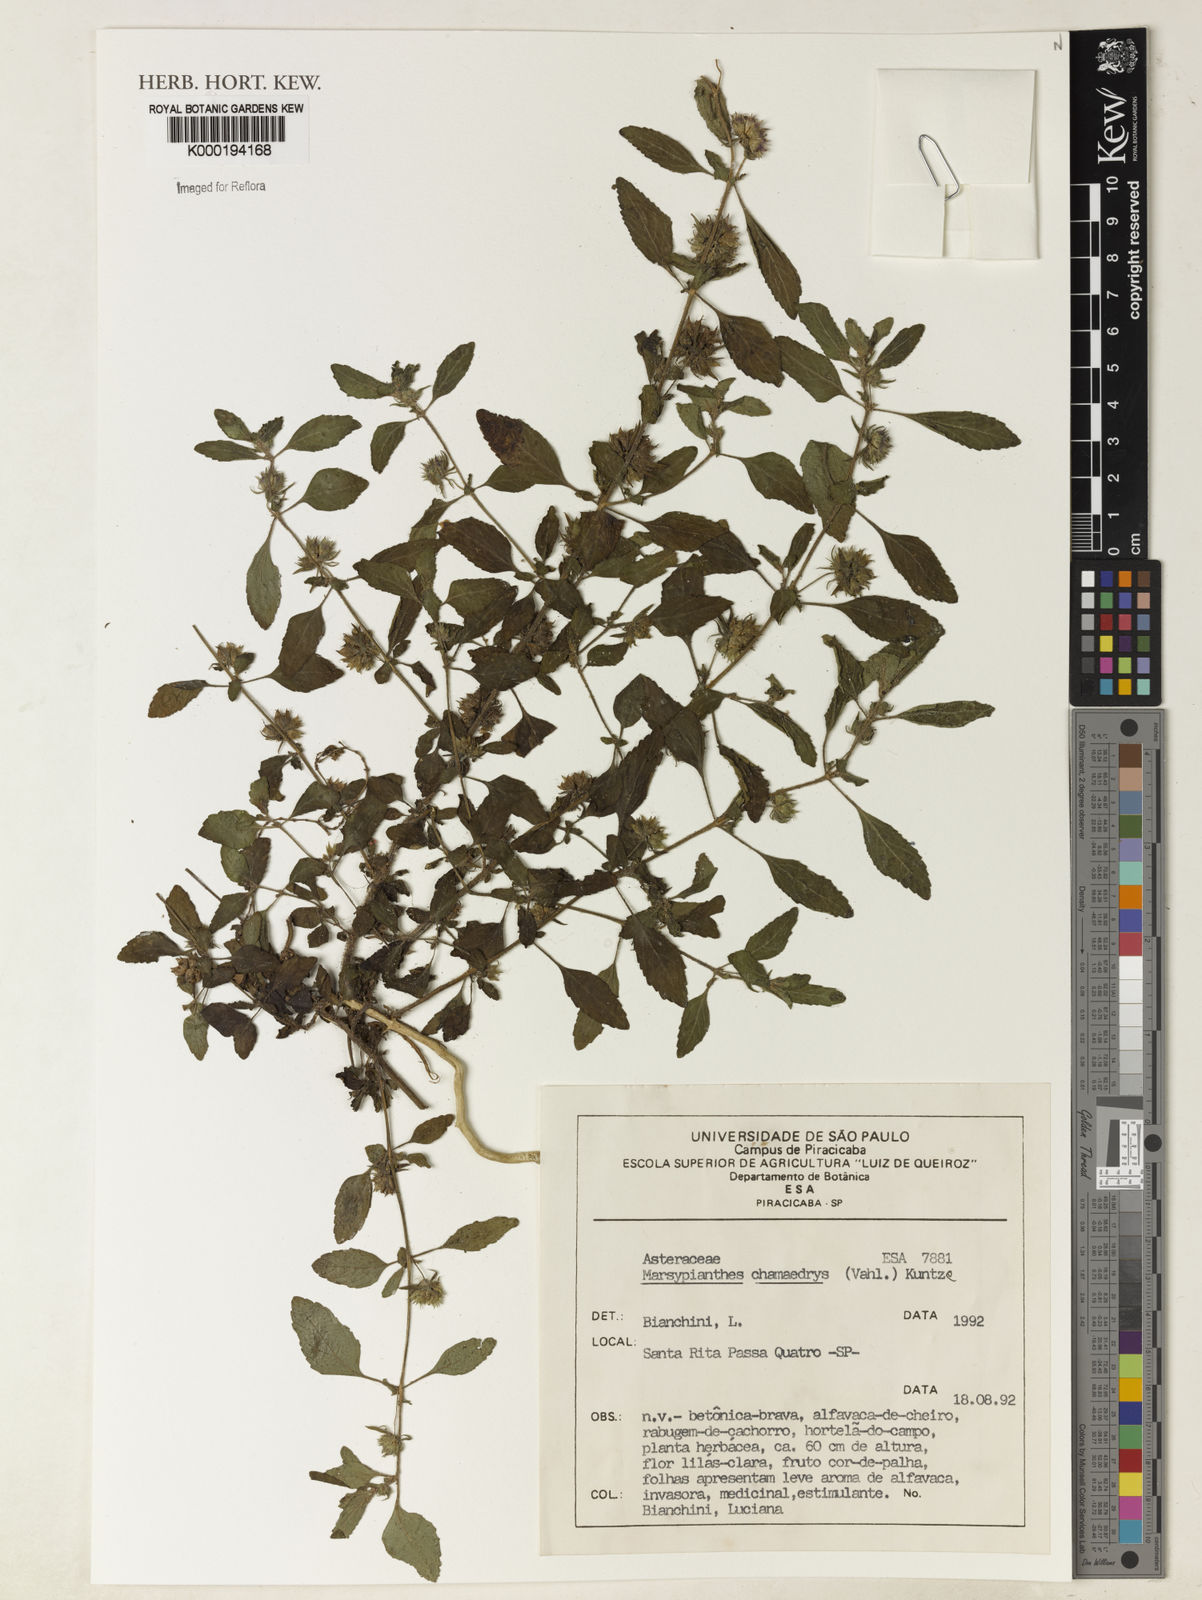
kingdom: Plantae
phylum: Tracheophyta
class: Magnoliopsida
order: Lamiales
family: Lamiaceae
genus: Marsypianthes
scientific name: Marsypianthes chamaedrys
